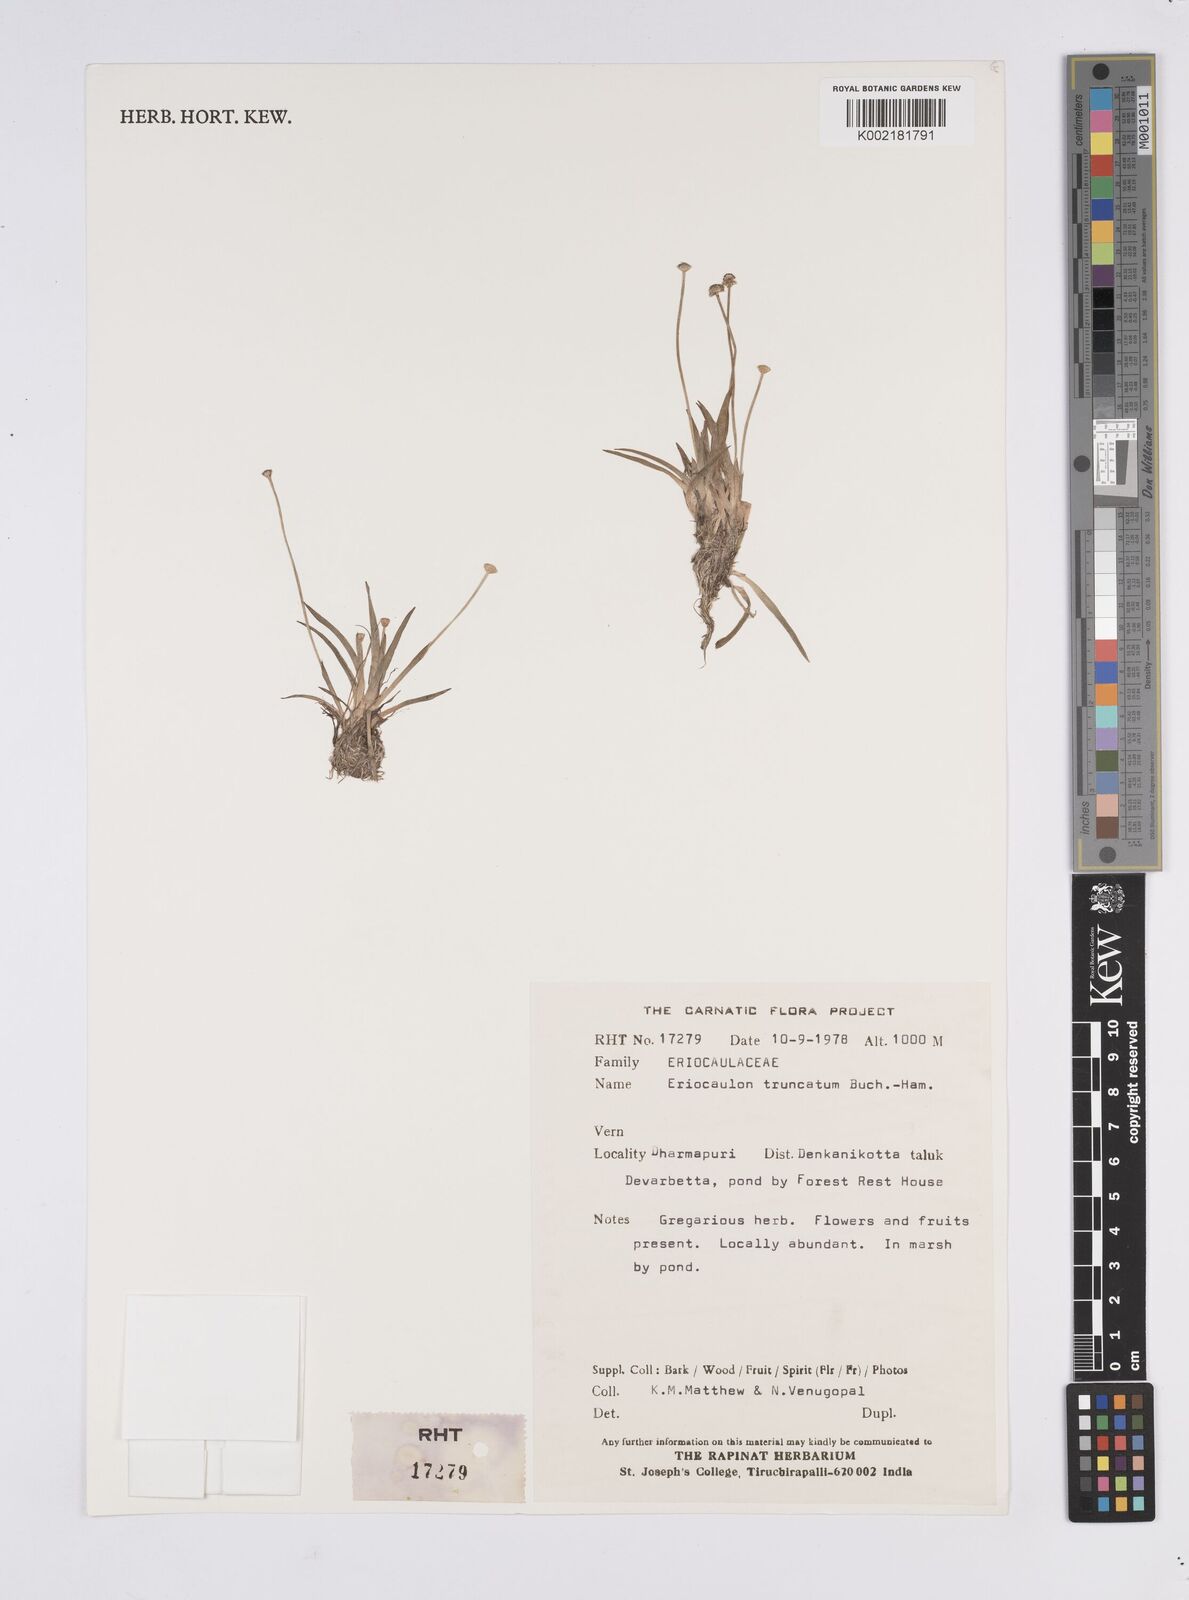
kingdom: Plantae
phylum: Tracheophyta
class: Liliopsida
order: Poales
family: Eriocaulaceae
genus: Eriocaulon
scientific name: Eriocaulon truncatum
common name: Short pipe-wort
